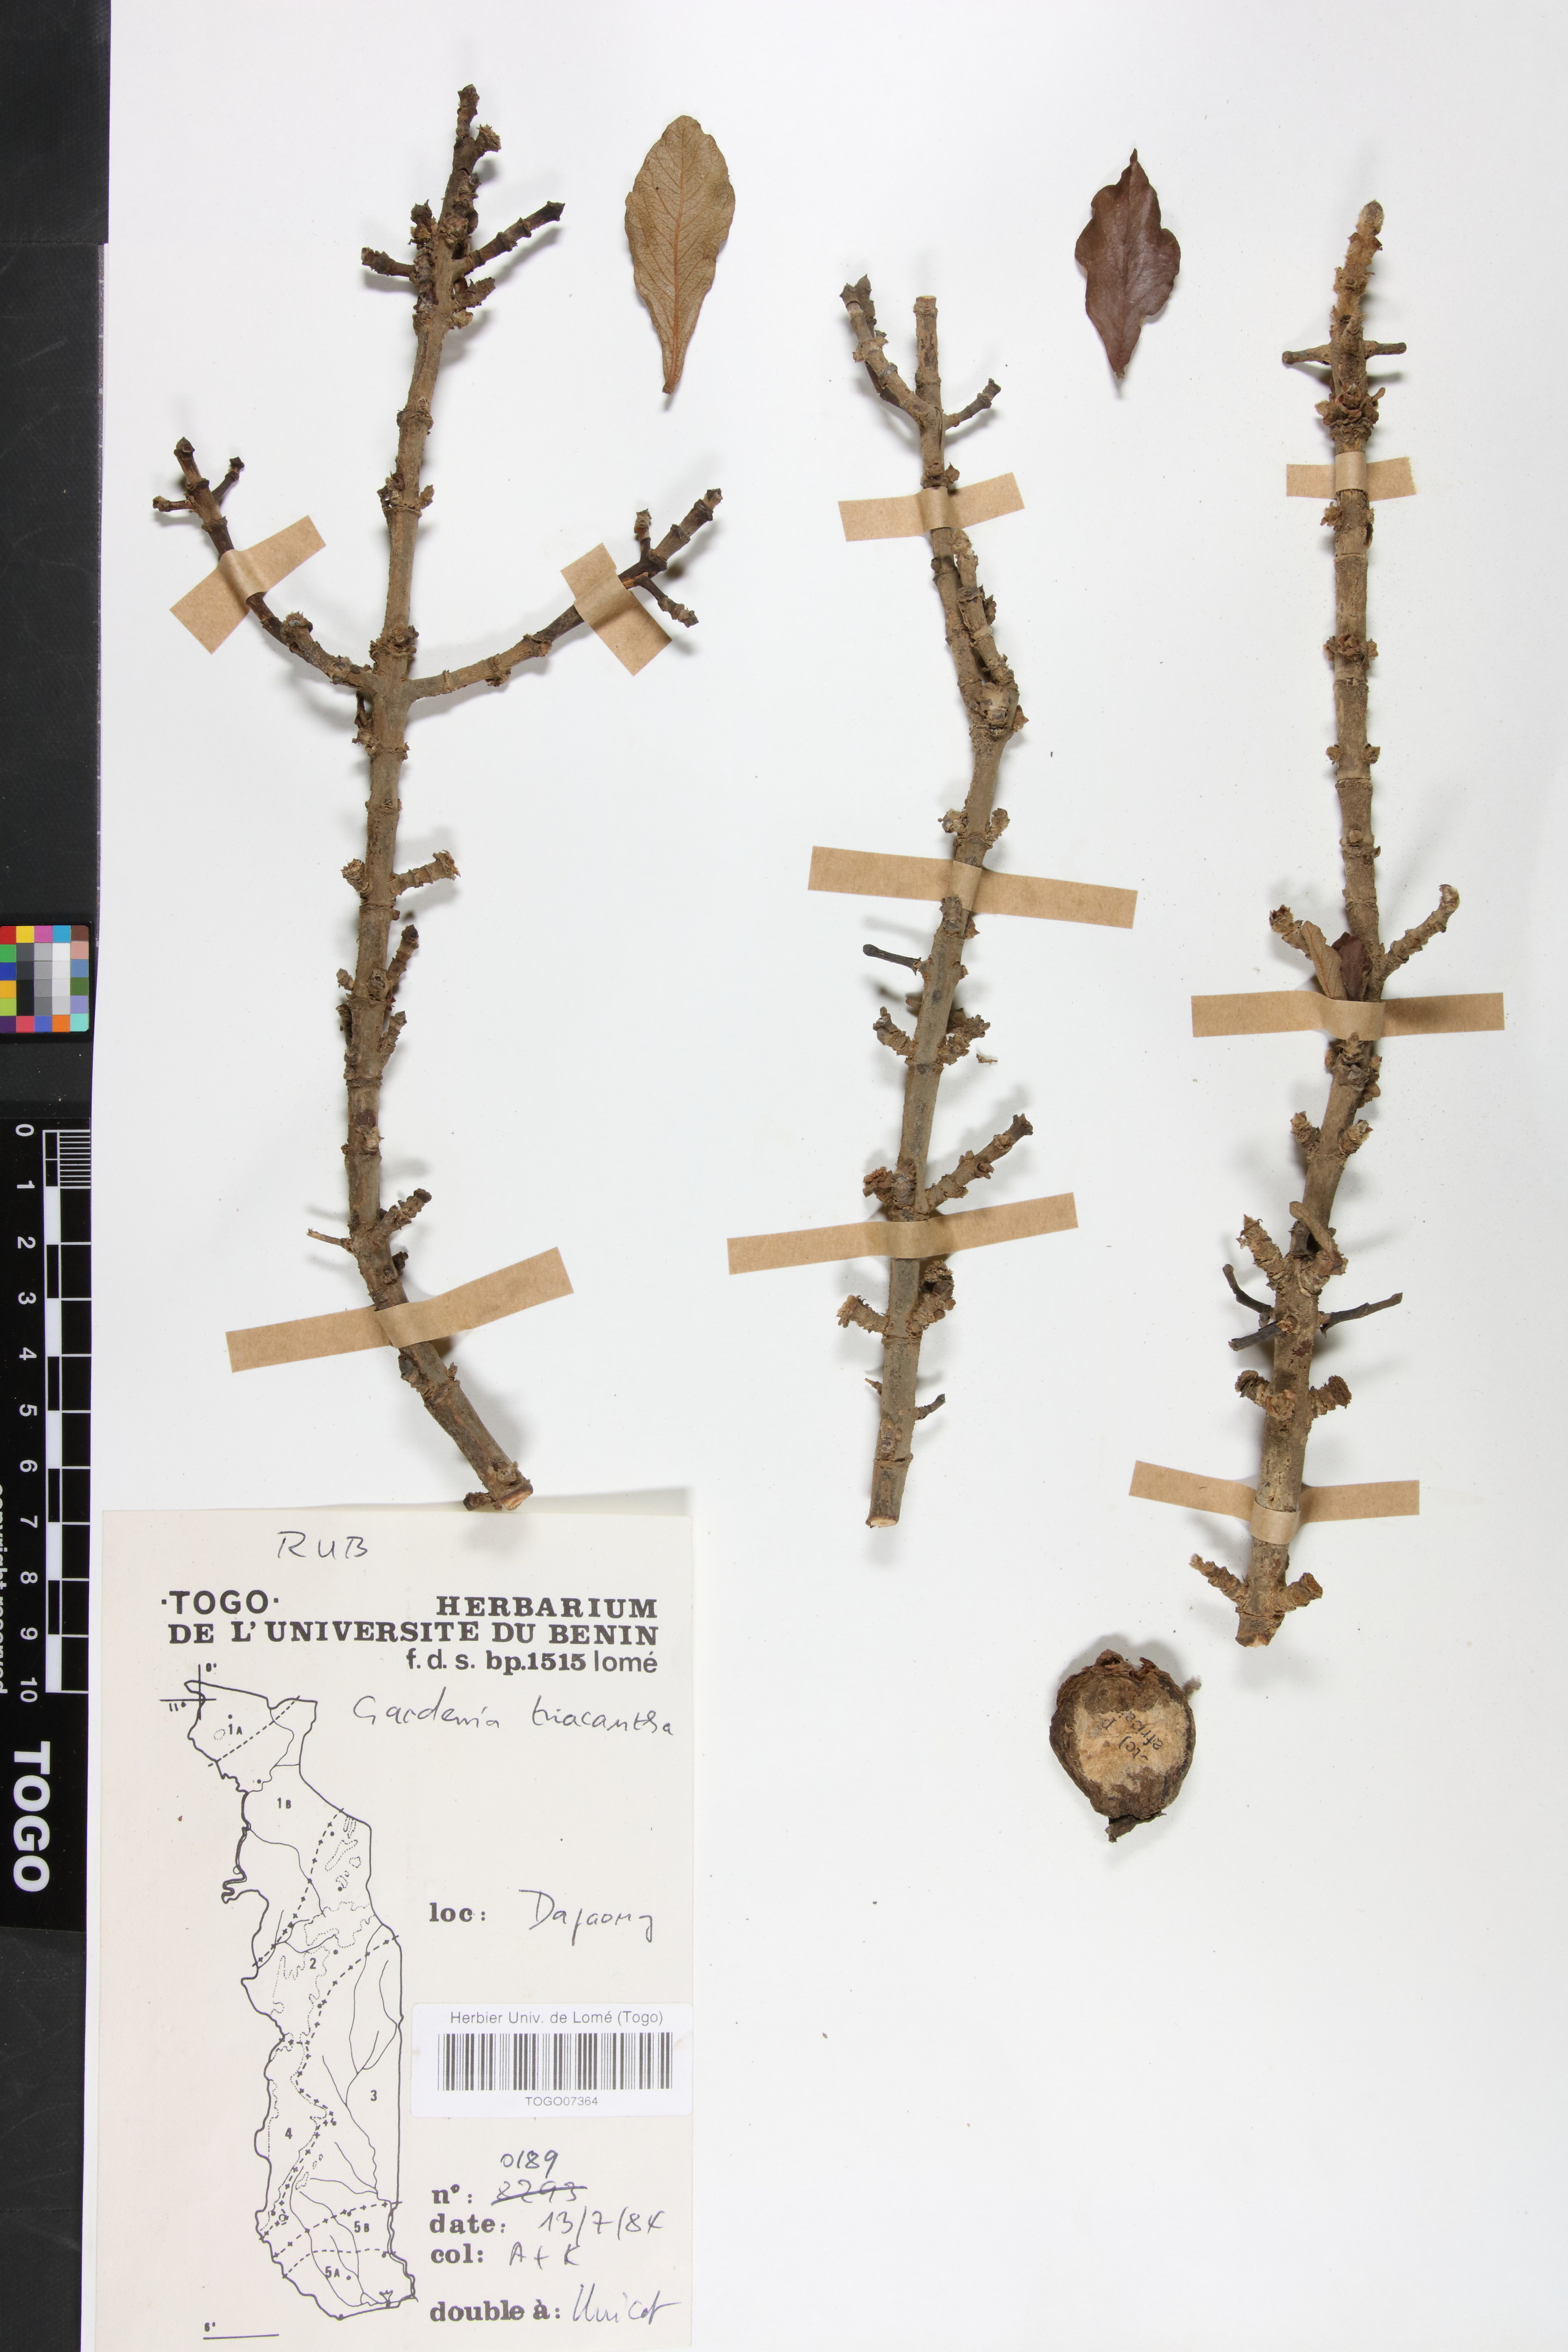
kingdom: Plantae
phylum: Tracheophyta
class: Magnoliopsida
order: Gentianales
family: Rubiaceae
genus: Gardenia
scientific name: Gardenia ternifolia
